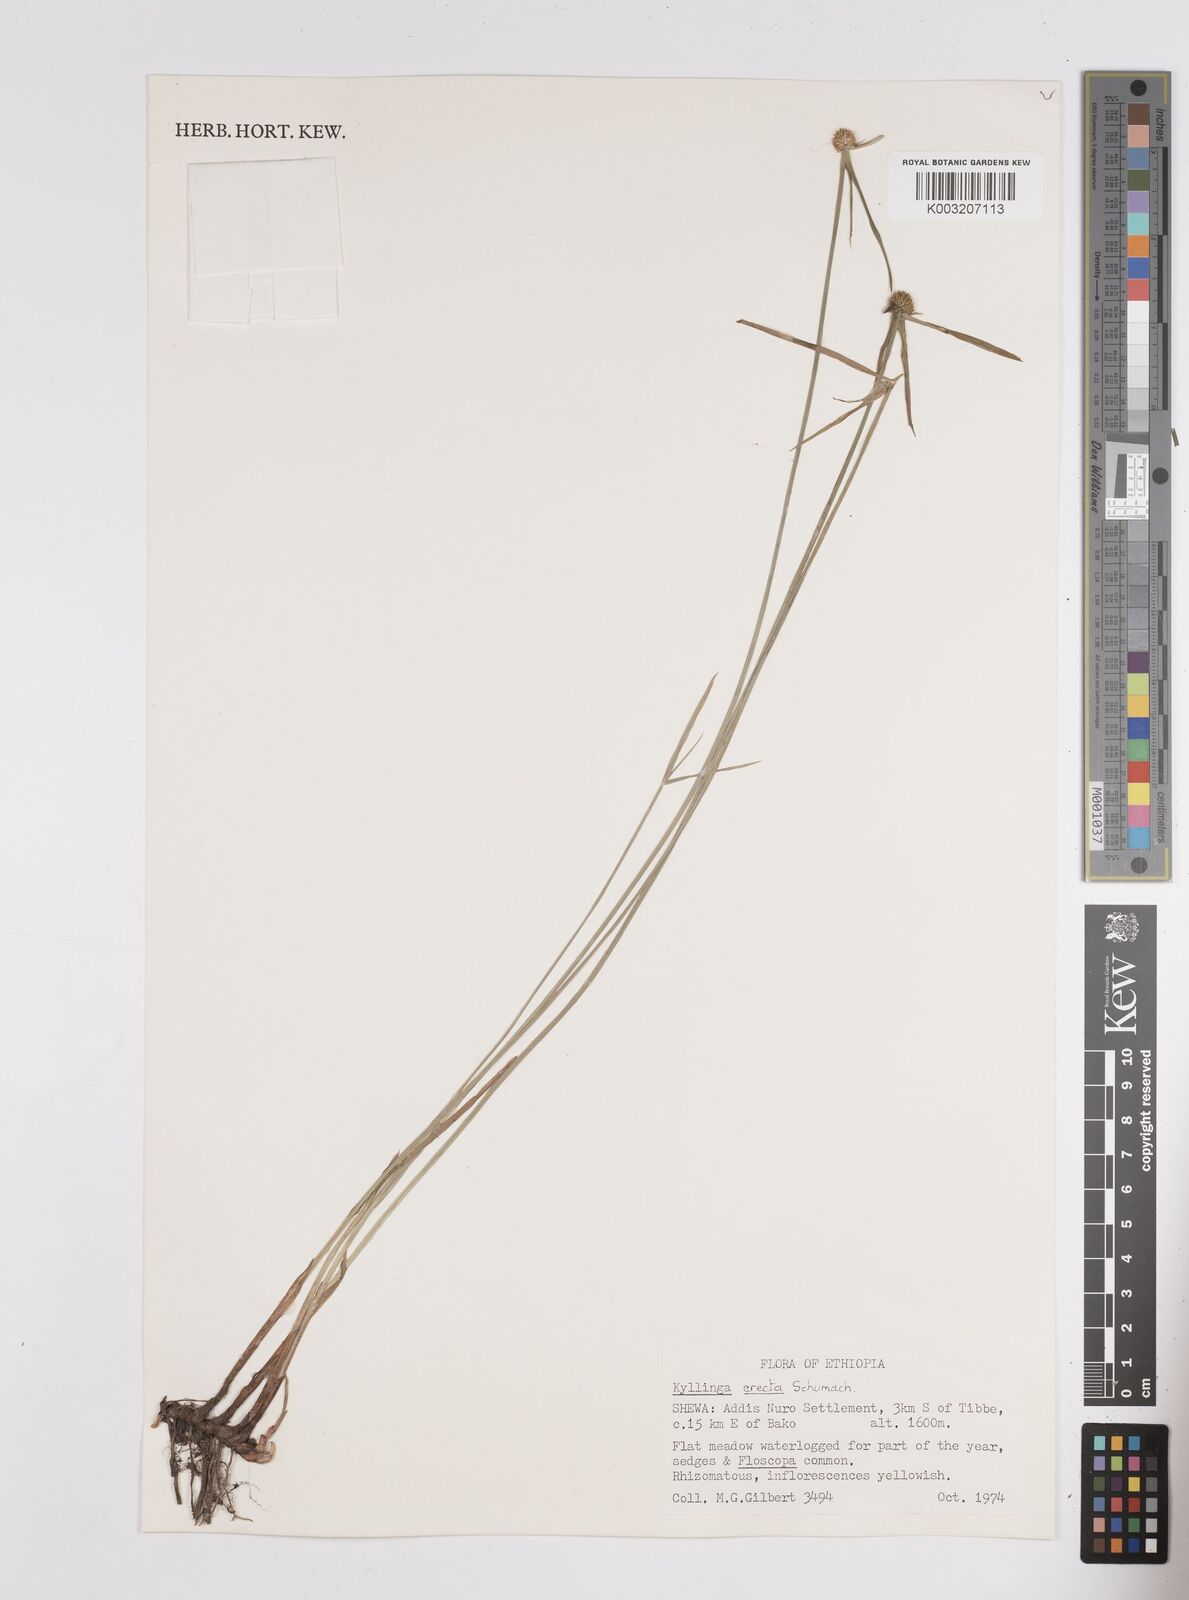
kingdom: Plantae
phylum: Tracheophyta
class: Liliopsida
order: Poales
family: Cyperaceae
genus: Cyperus
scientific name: Cyperus erectus
